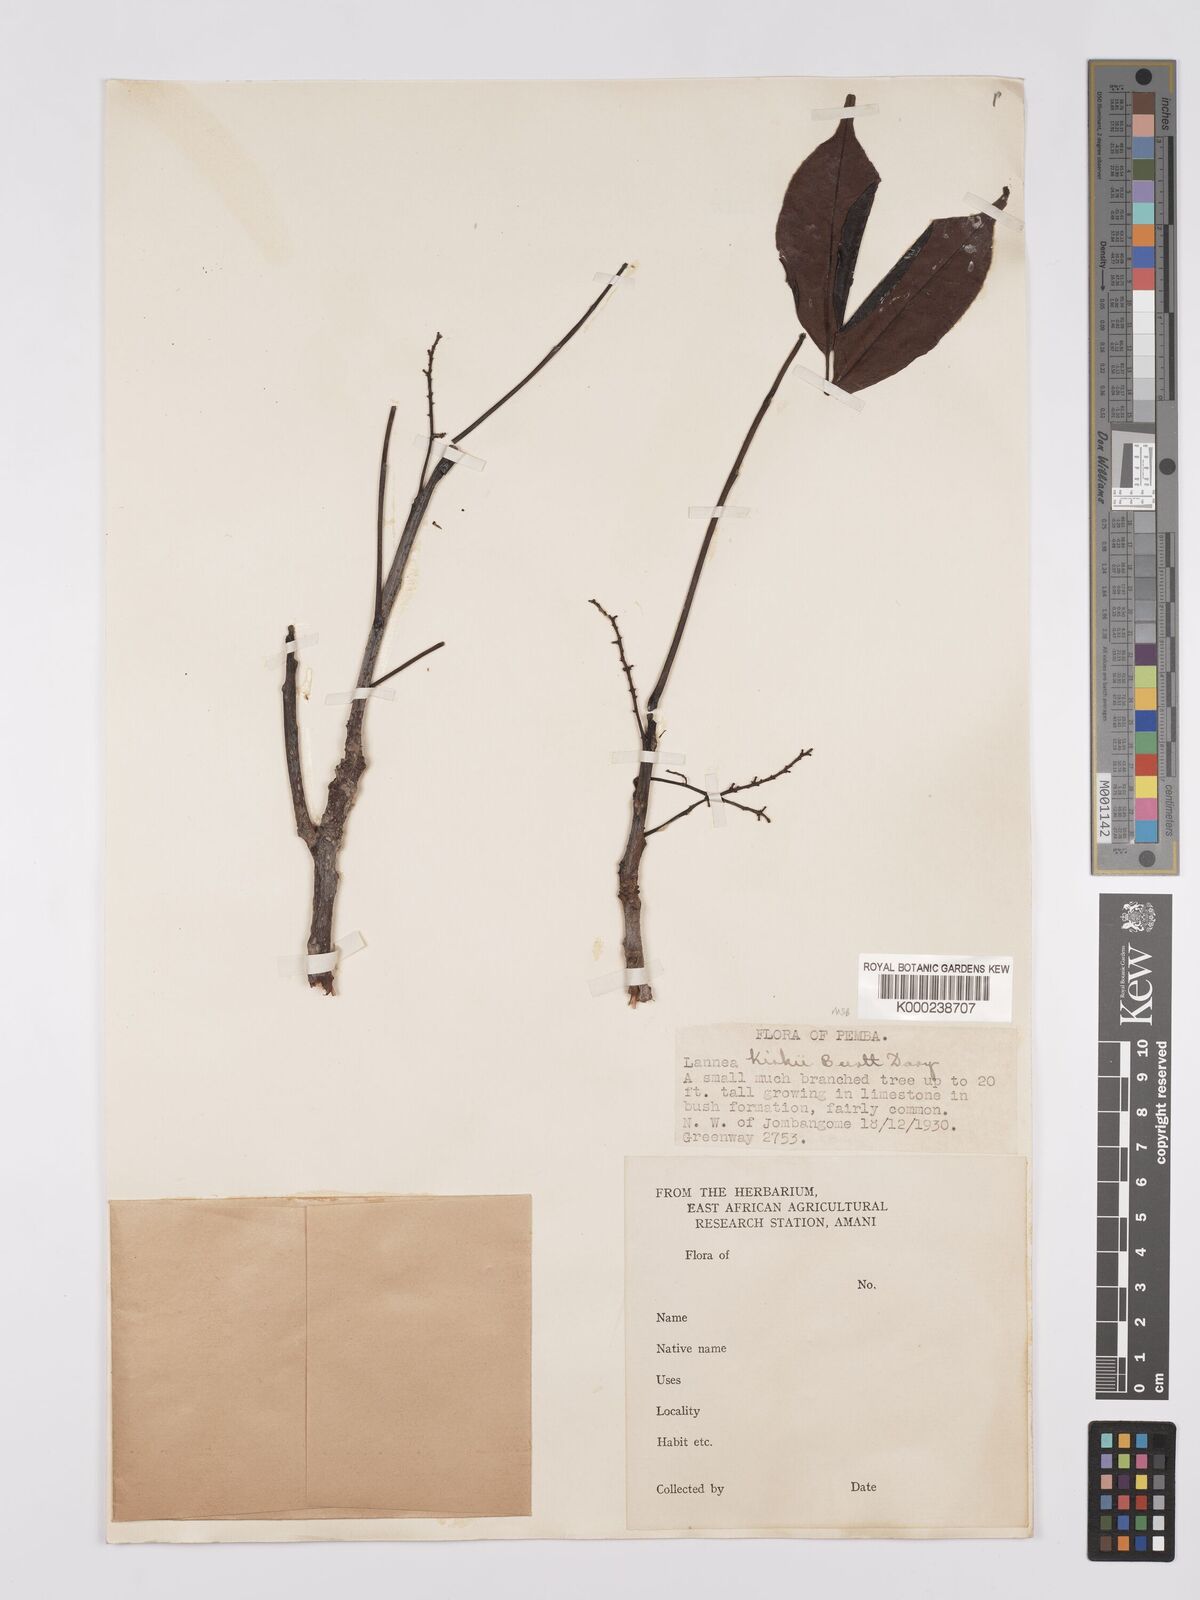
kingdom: Plantae
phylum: Tracheophyta
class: Magnoliopsida
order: Sapindales
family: Anacardiaceae
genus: Lannea
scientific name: Lannea schweinfurthii
